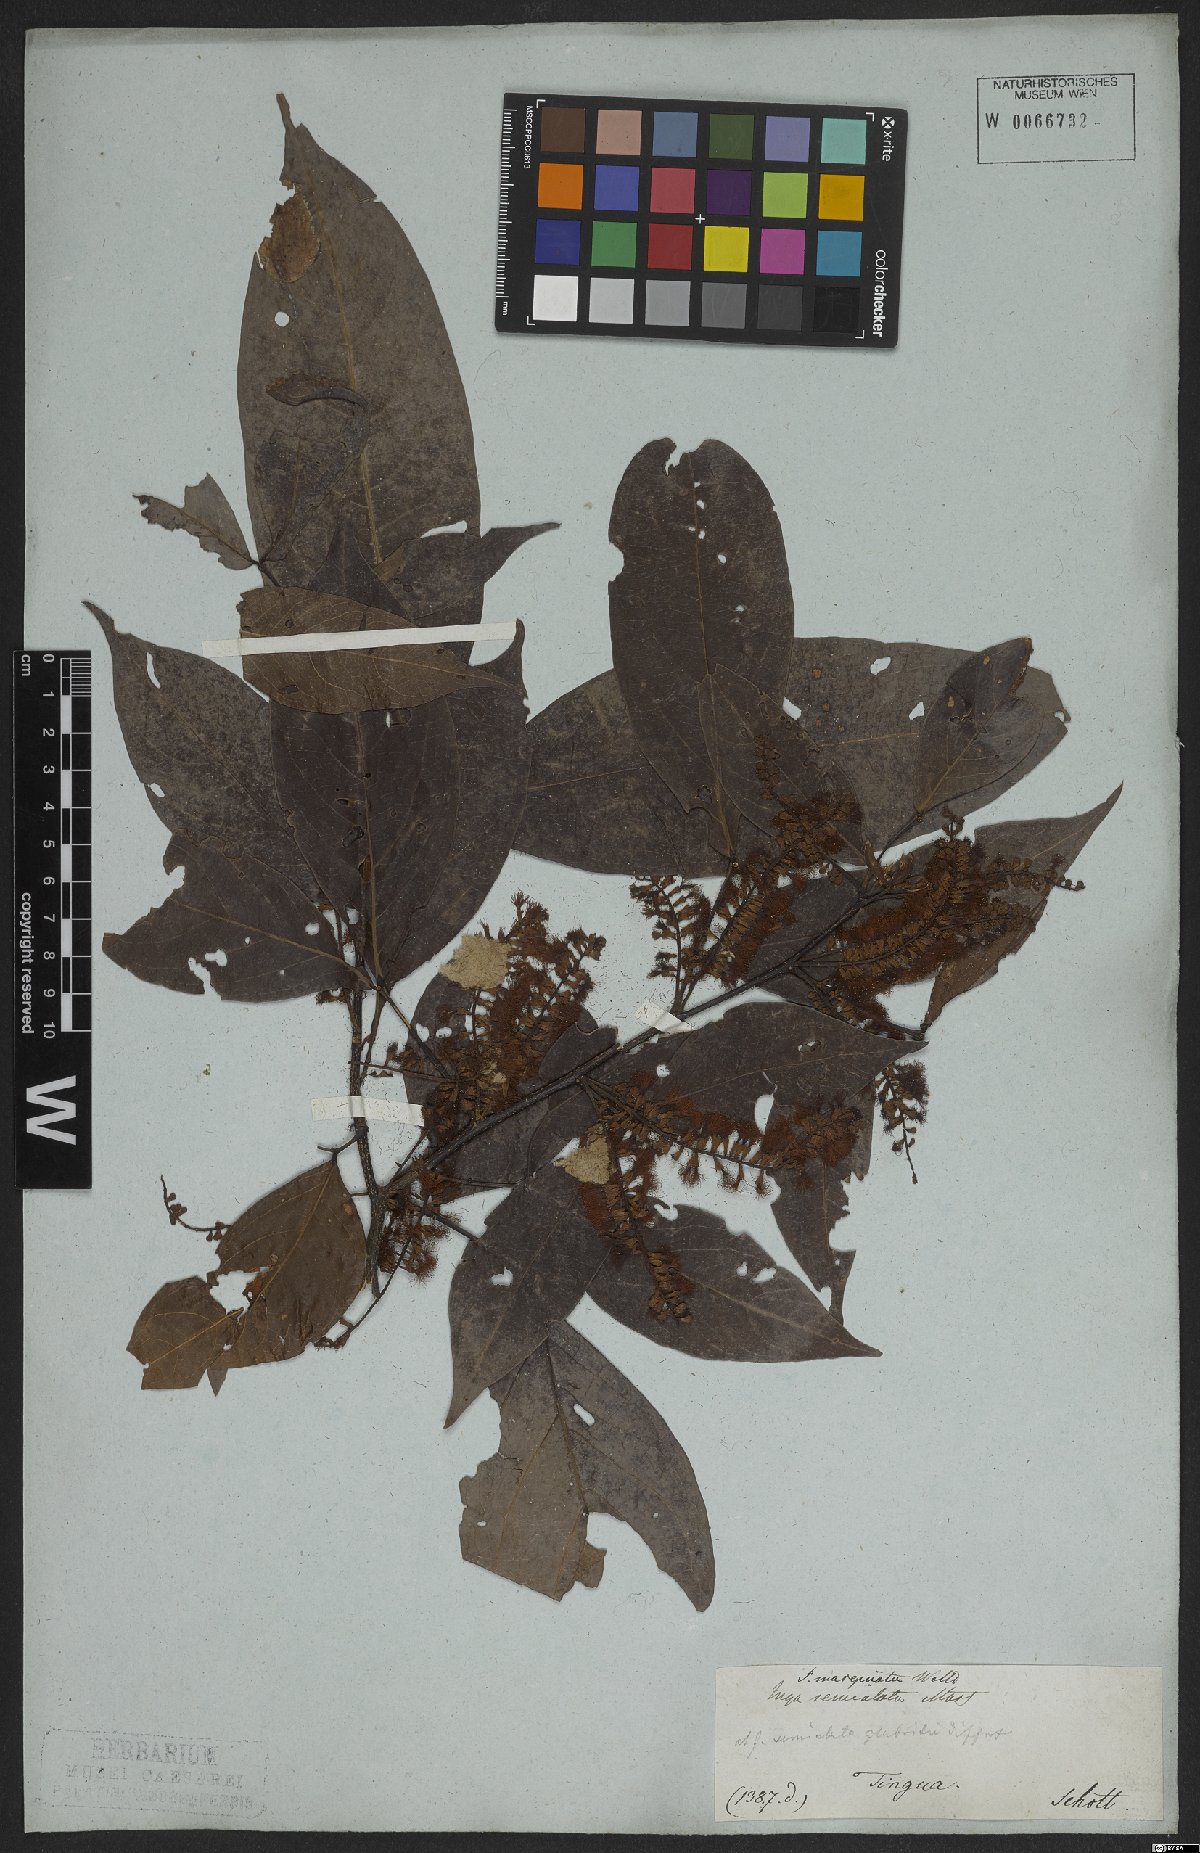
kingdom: Plantae
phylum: Tracheophyta
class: Magnoliopsida
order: Fabales
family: Fabaceae
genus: Inga
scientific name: Inga marginata
